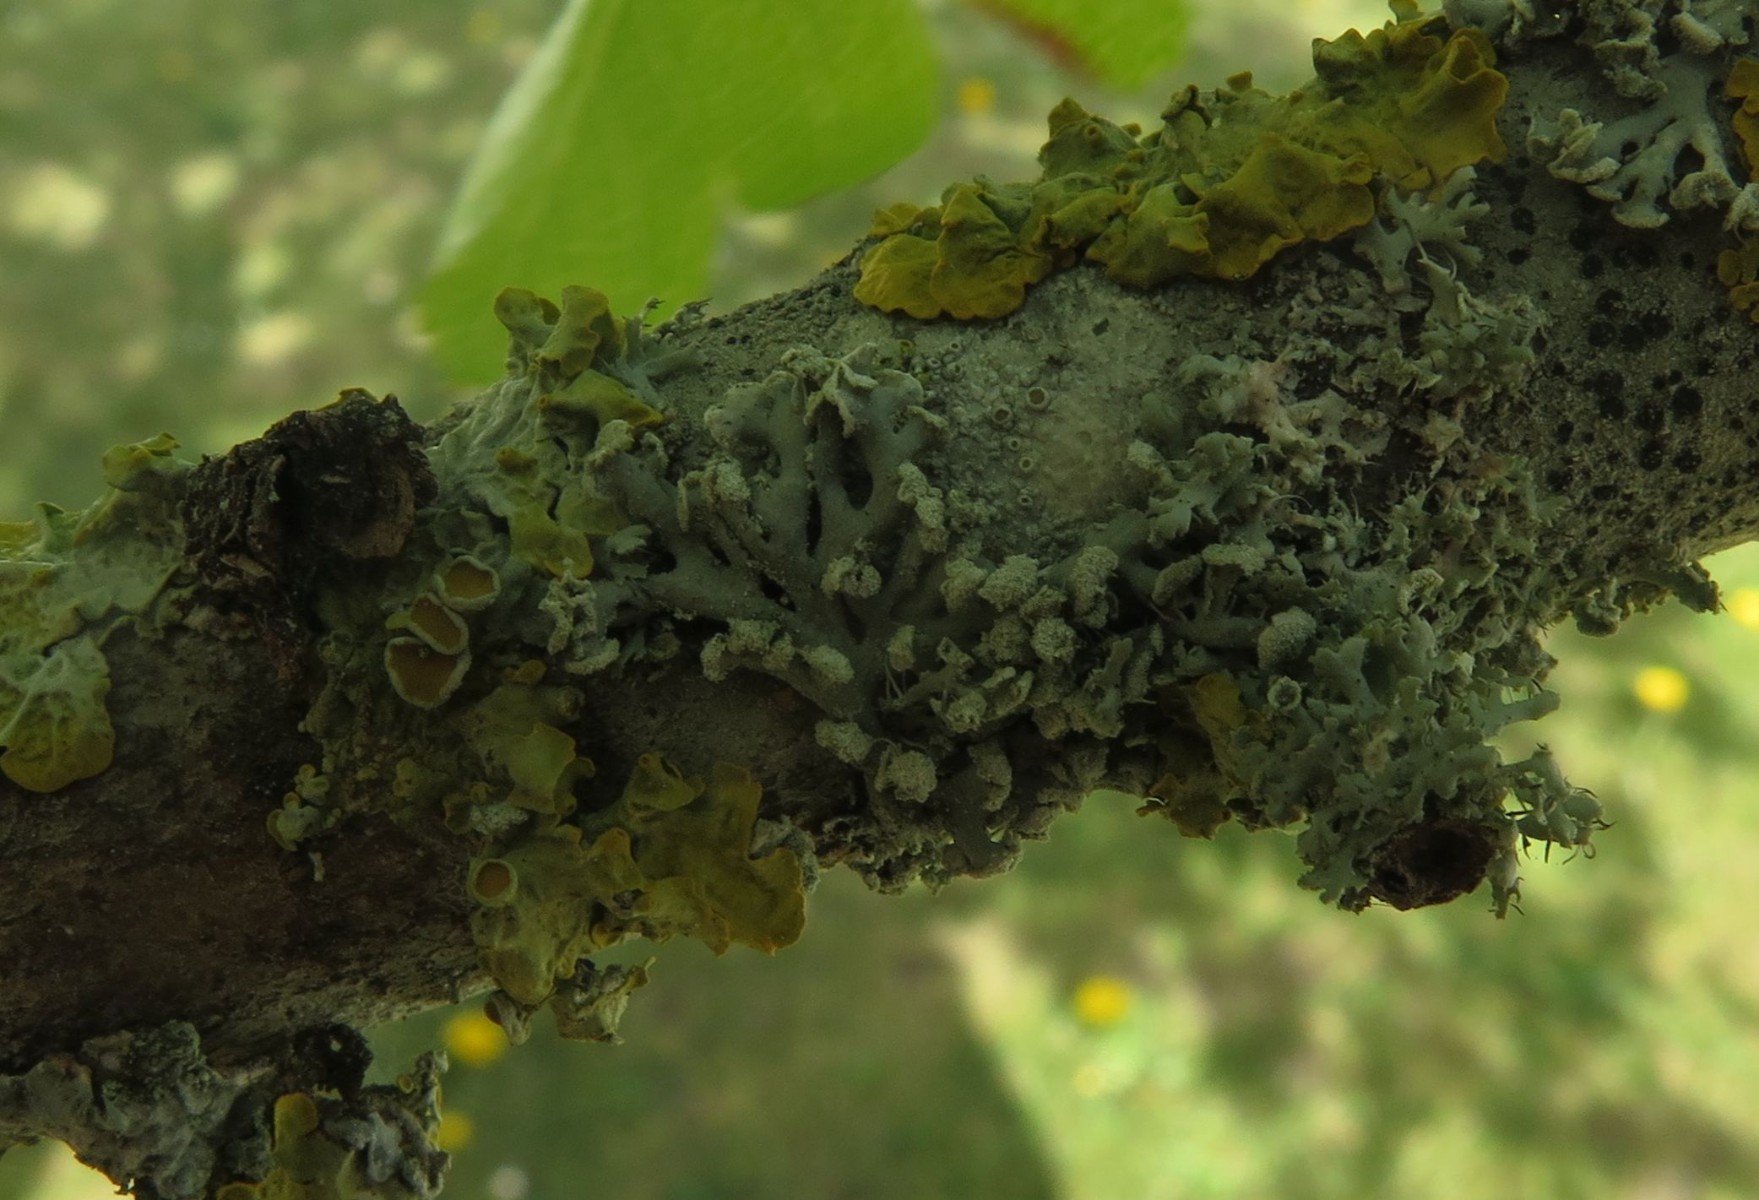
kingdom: Fungi
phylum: Ascomycota
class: Lecanoromycetes
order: Lecanorales
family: Parmeliaceae
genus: Hypogymnia
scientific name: Hypogymnia physodes
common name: almindelig kvistlav
